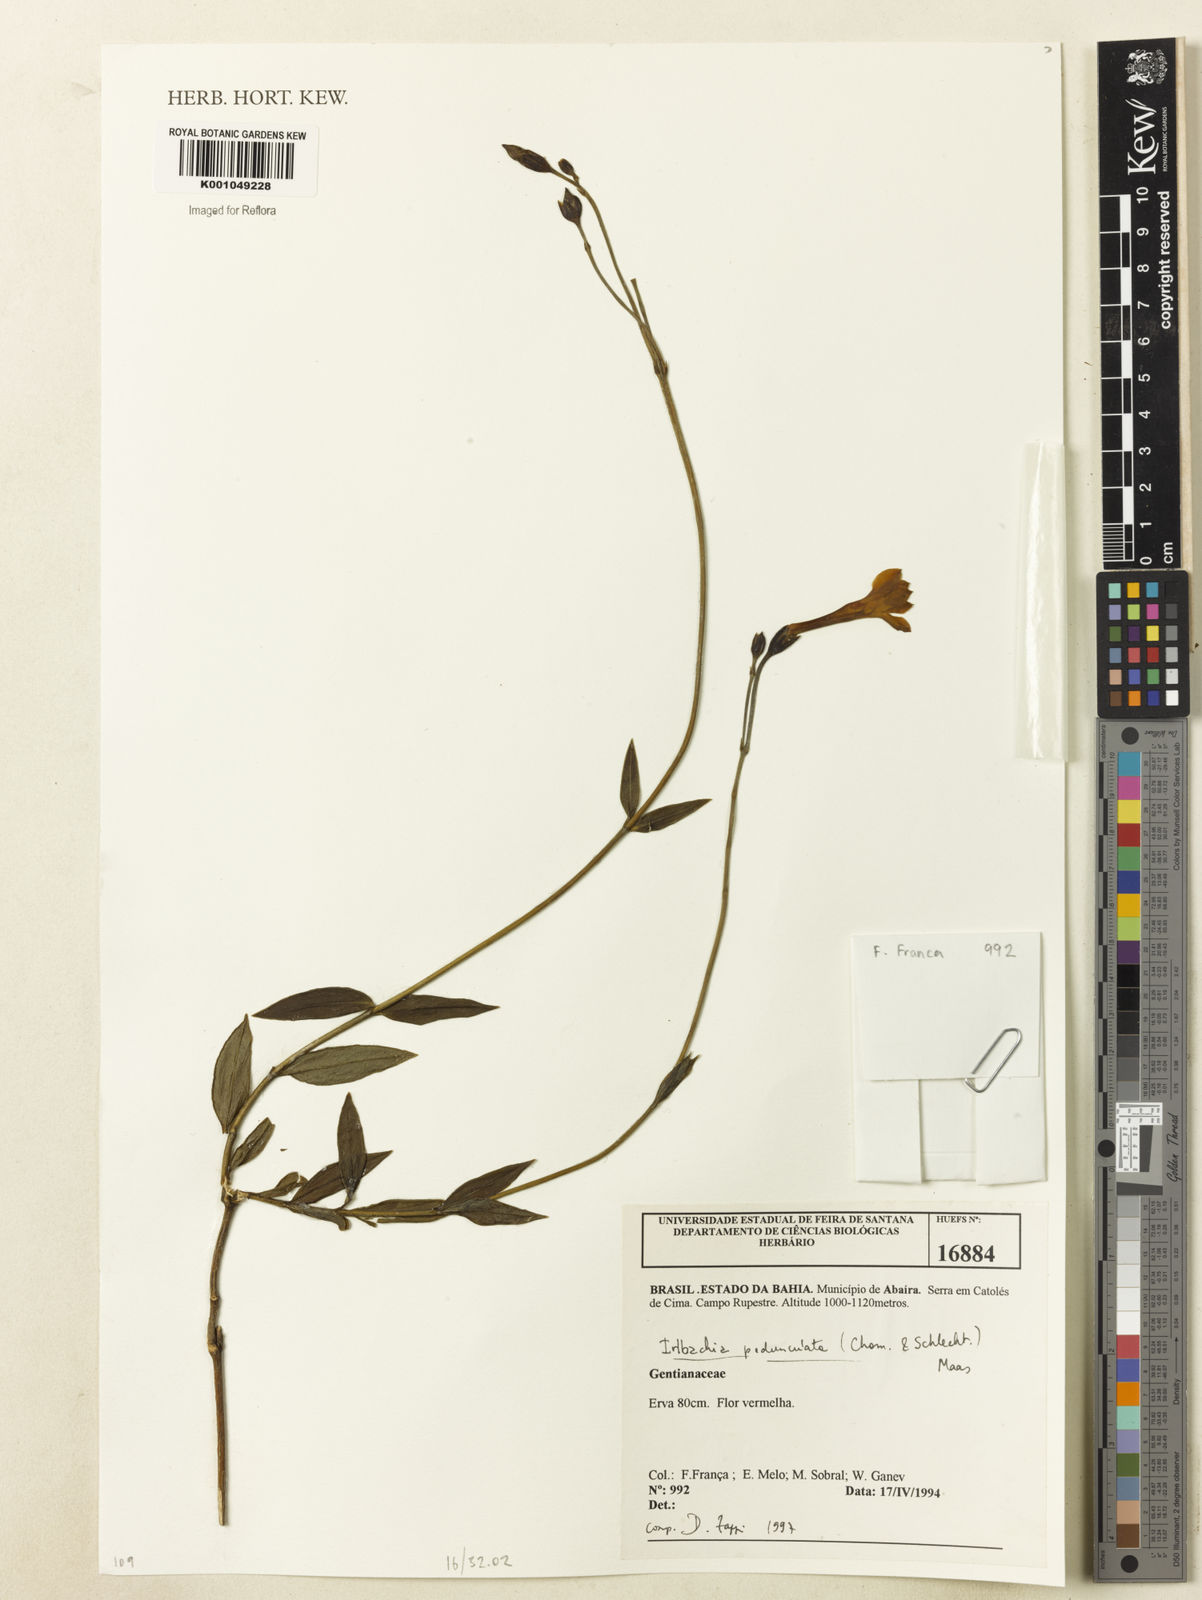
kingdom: Plantae
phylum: Tracheophyta
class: Magnoliopsida
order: Gentianales
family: Gentianaceae
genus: Calolisianthus
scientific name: Calolisianthus pedunculatus
